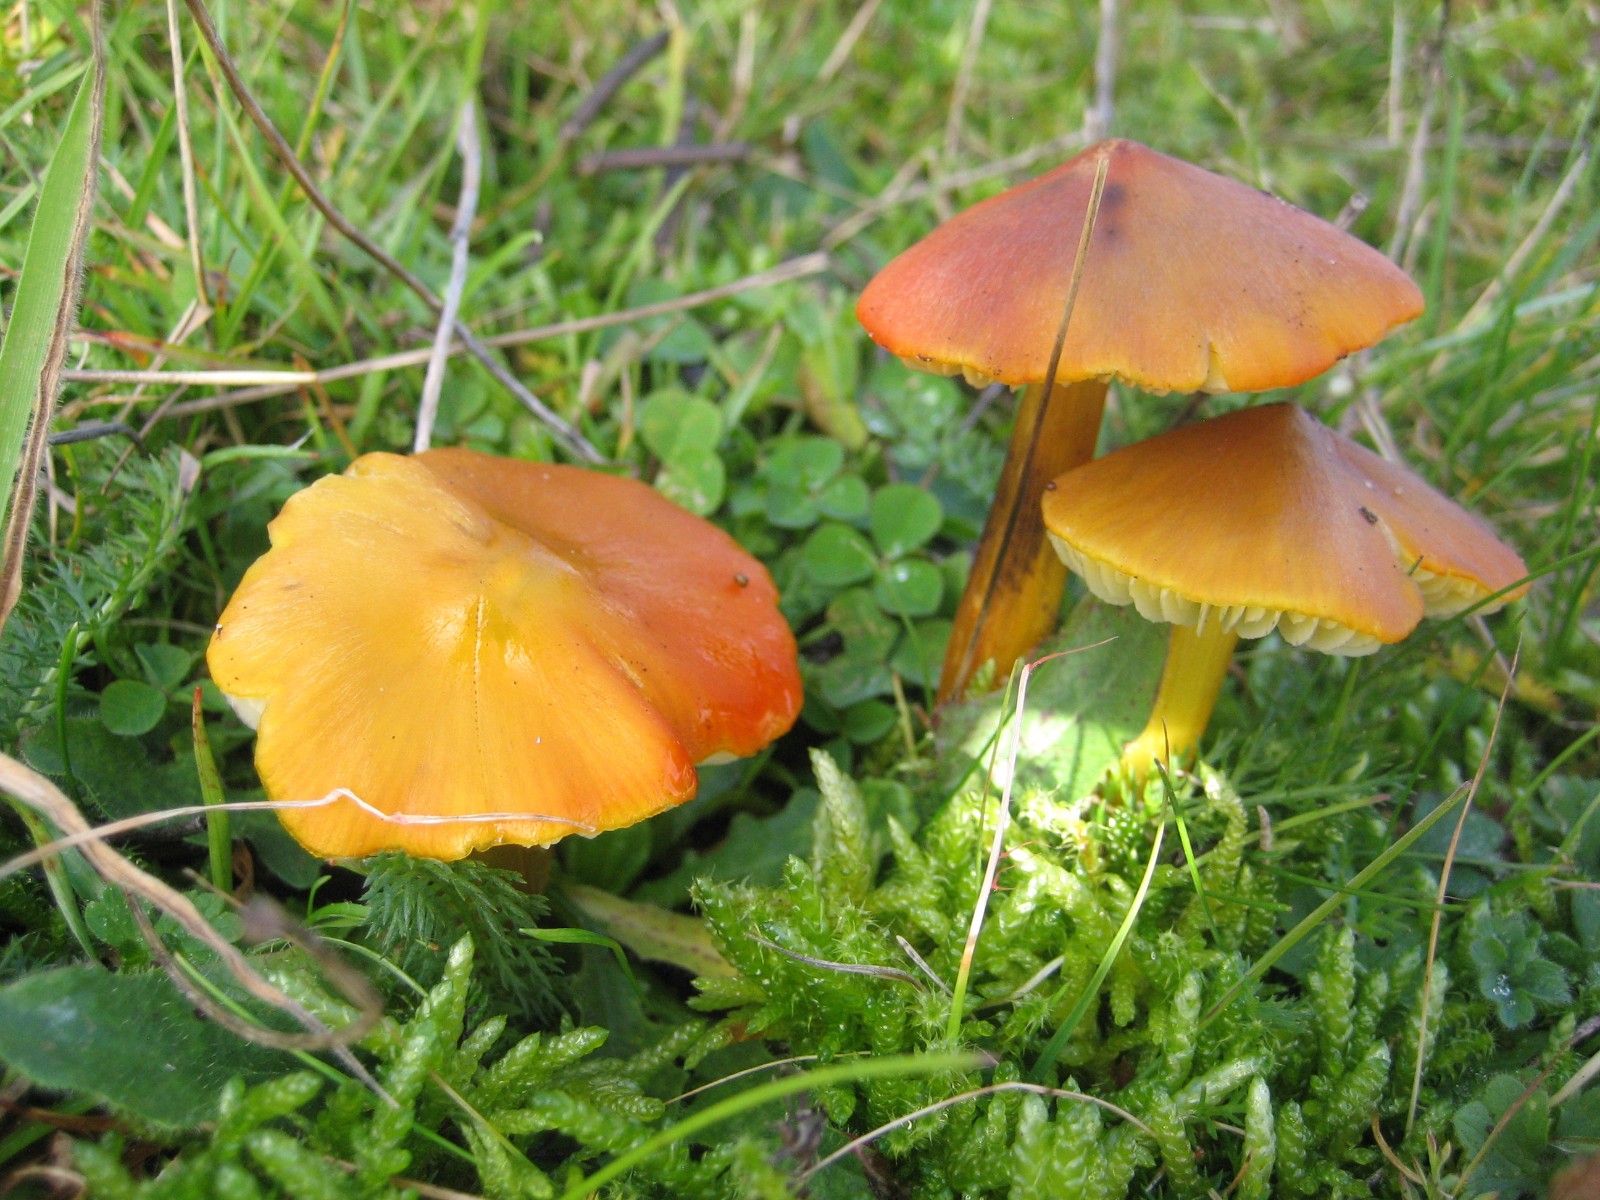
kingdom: Fungi
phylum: Basidiomycota
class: Agaricomycetes
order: Agaricales
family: Hygrophoraceae
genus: Hygrocybe
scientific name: Hygrocybe conica
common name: kegle-vokshat
